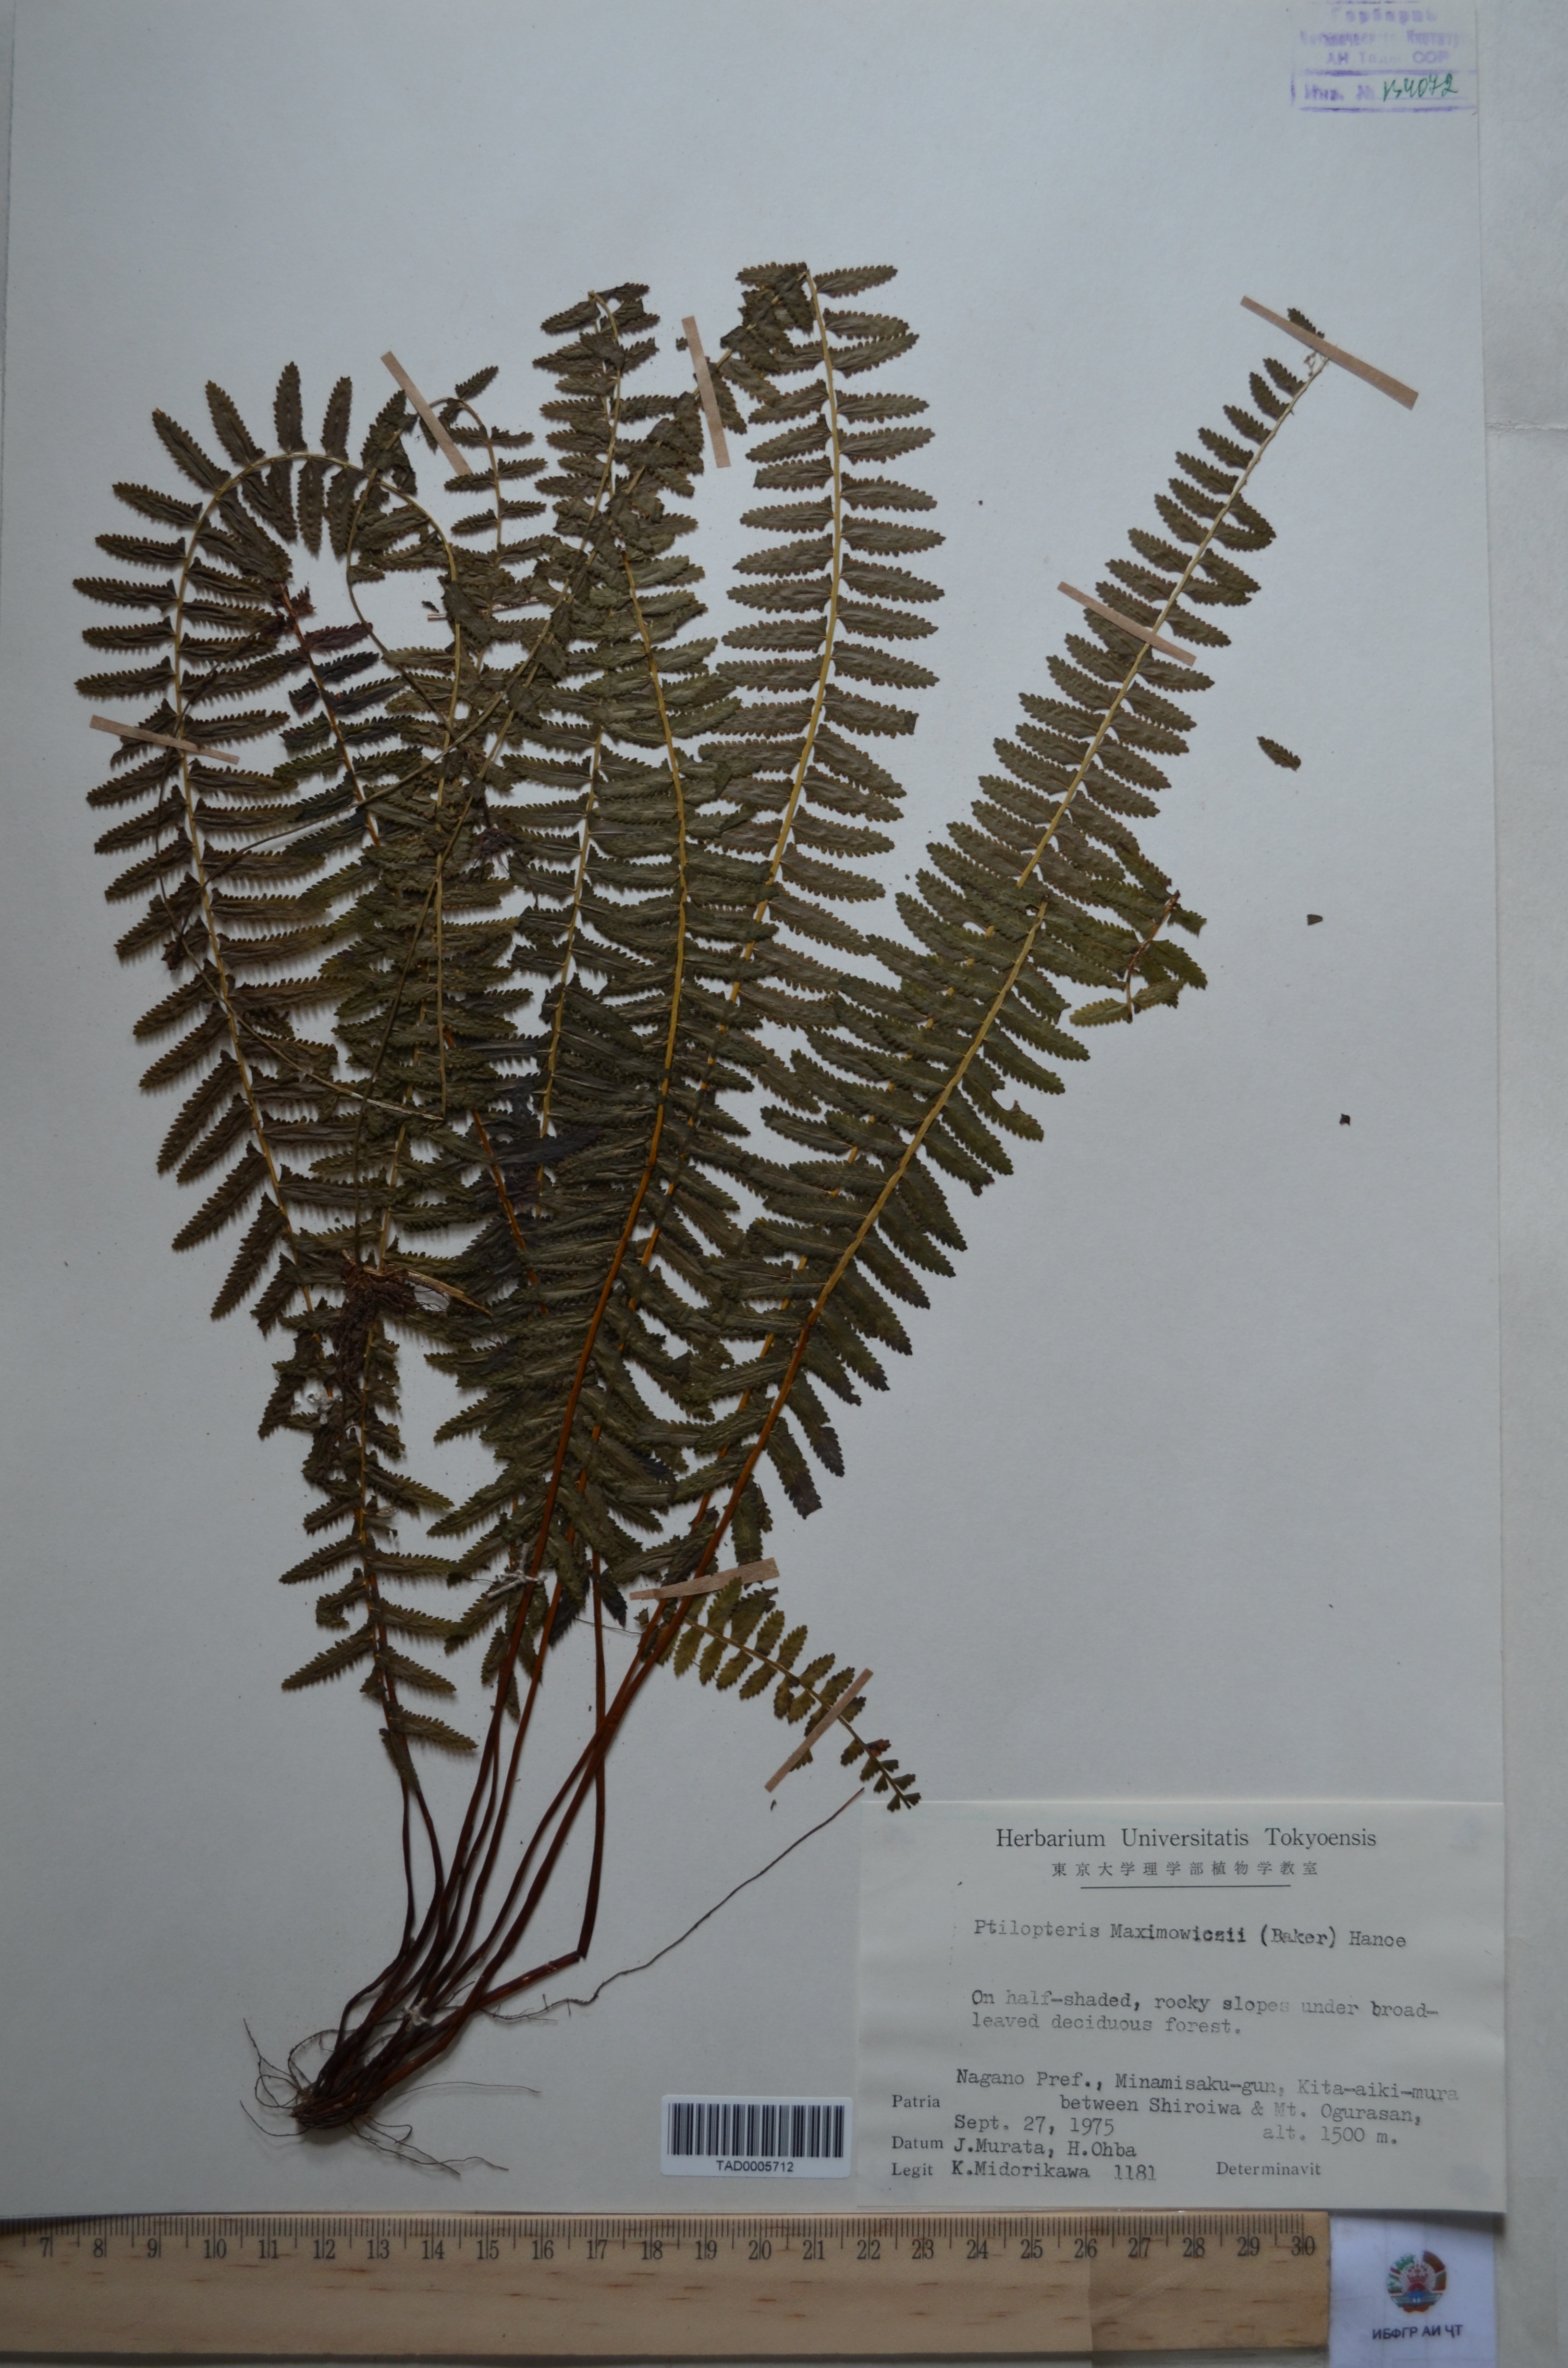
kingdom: Plantae
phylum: Tracheophyta
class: Polypodiopsida
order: Polypodiales
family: Dennstaedtiaceae
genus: Monachosorum
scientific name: Monachosorum maximowiczii
